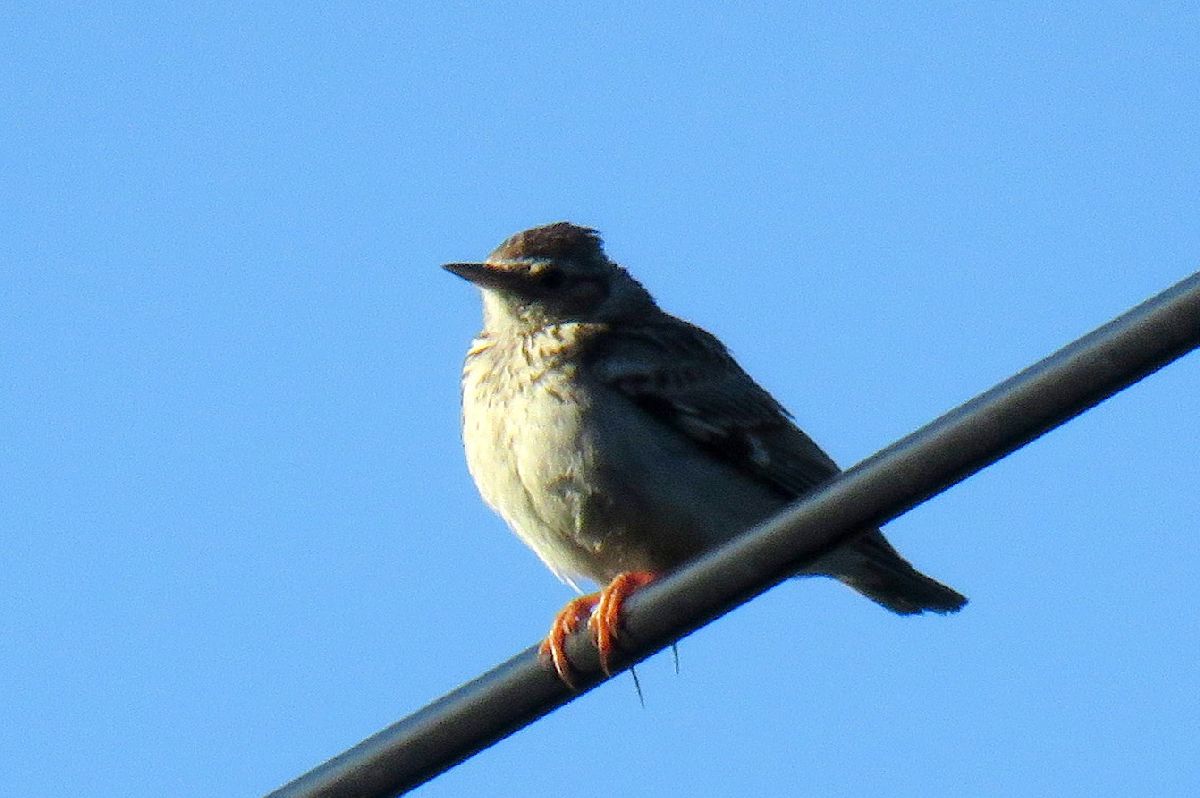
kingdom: Animalia
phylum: Chordata
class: Aves
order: Passeriformes
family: Alaudidae
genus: Lullula
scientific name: Lullula arborea
